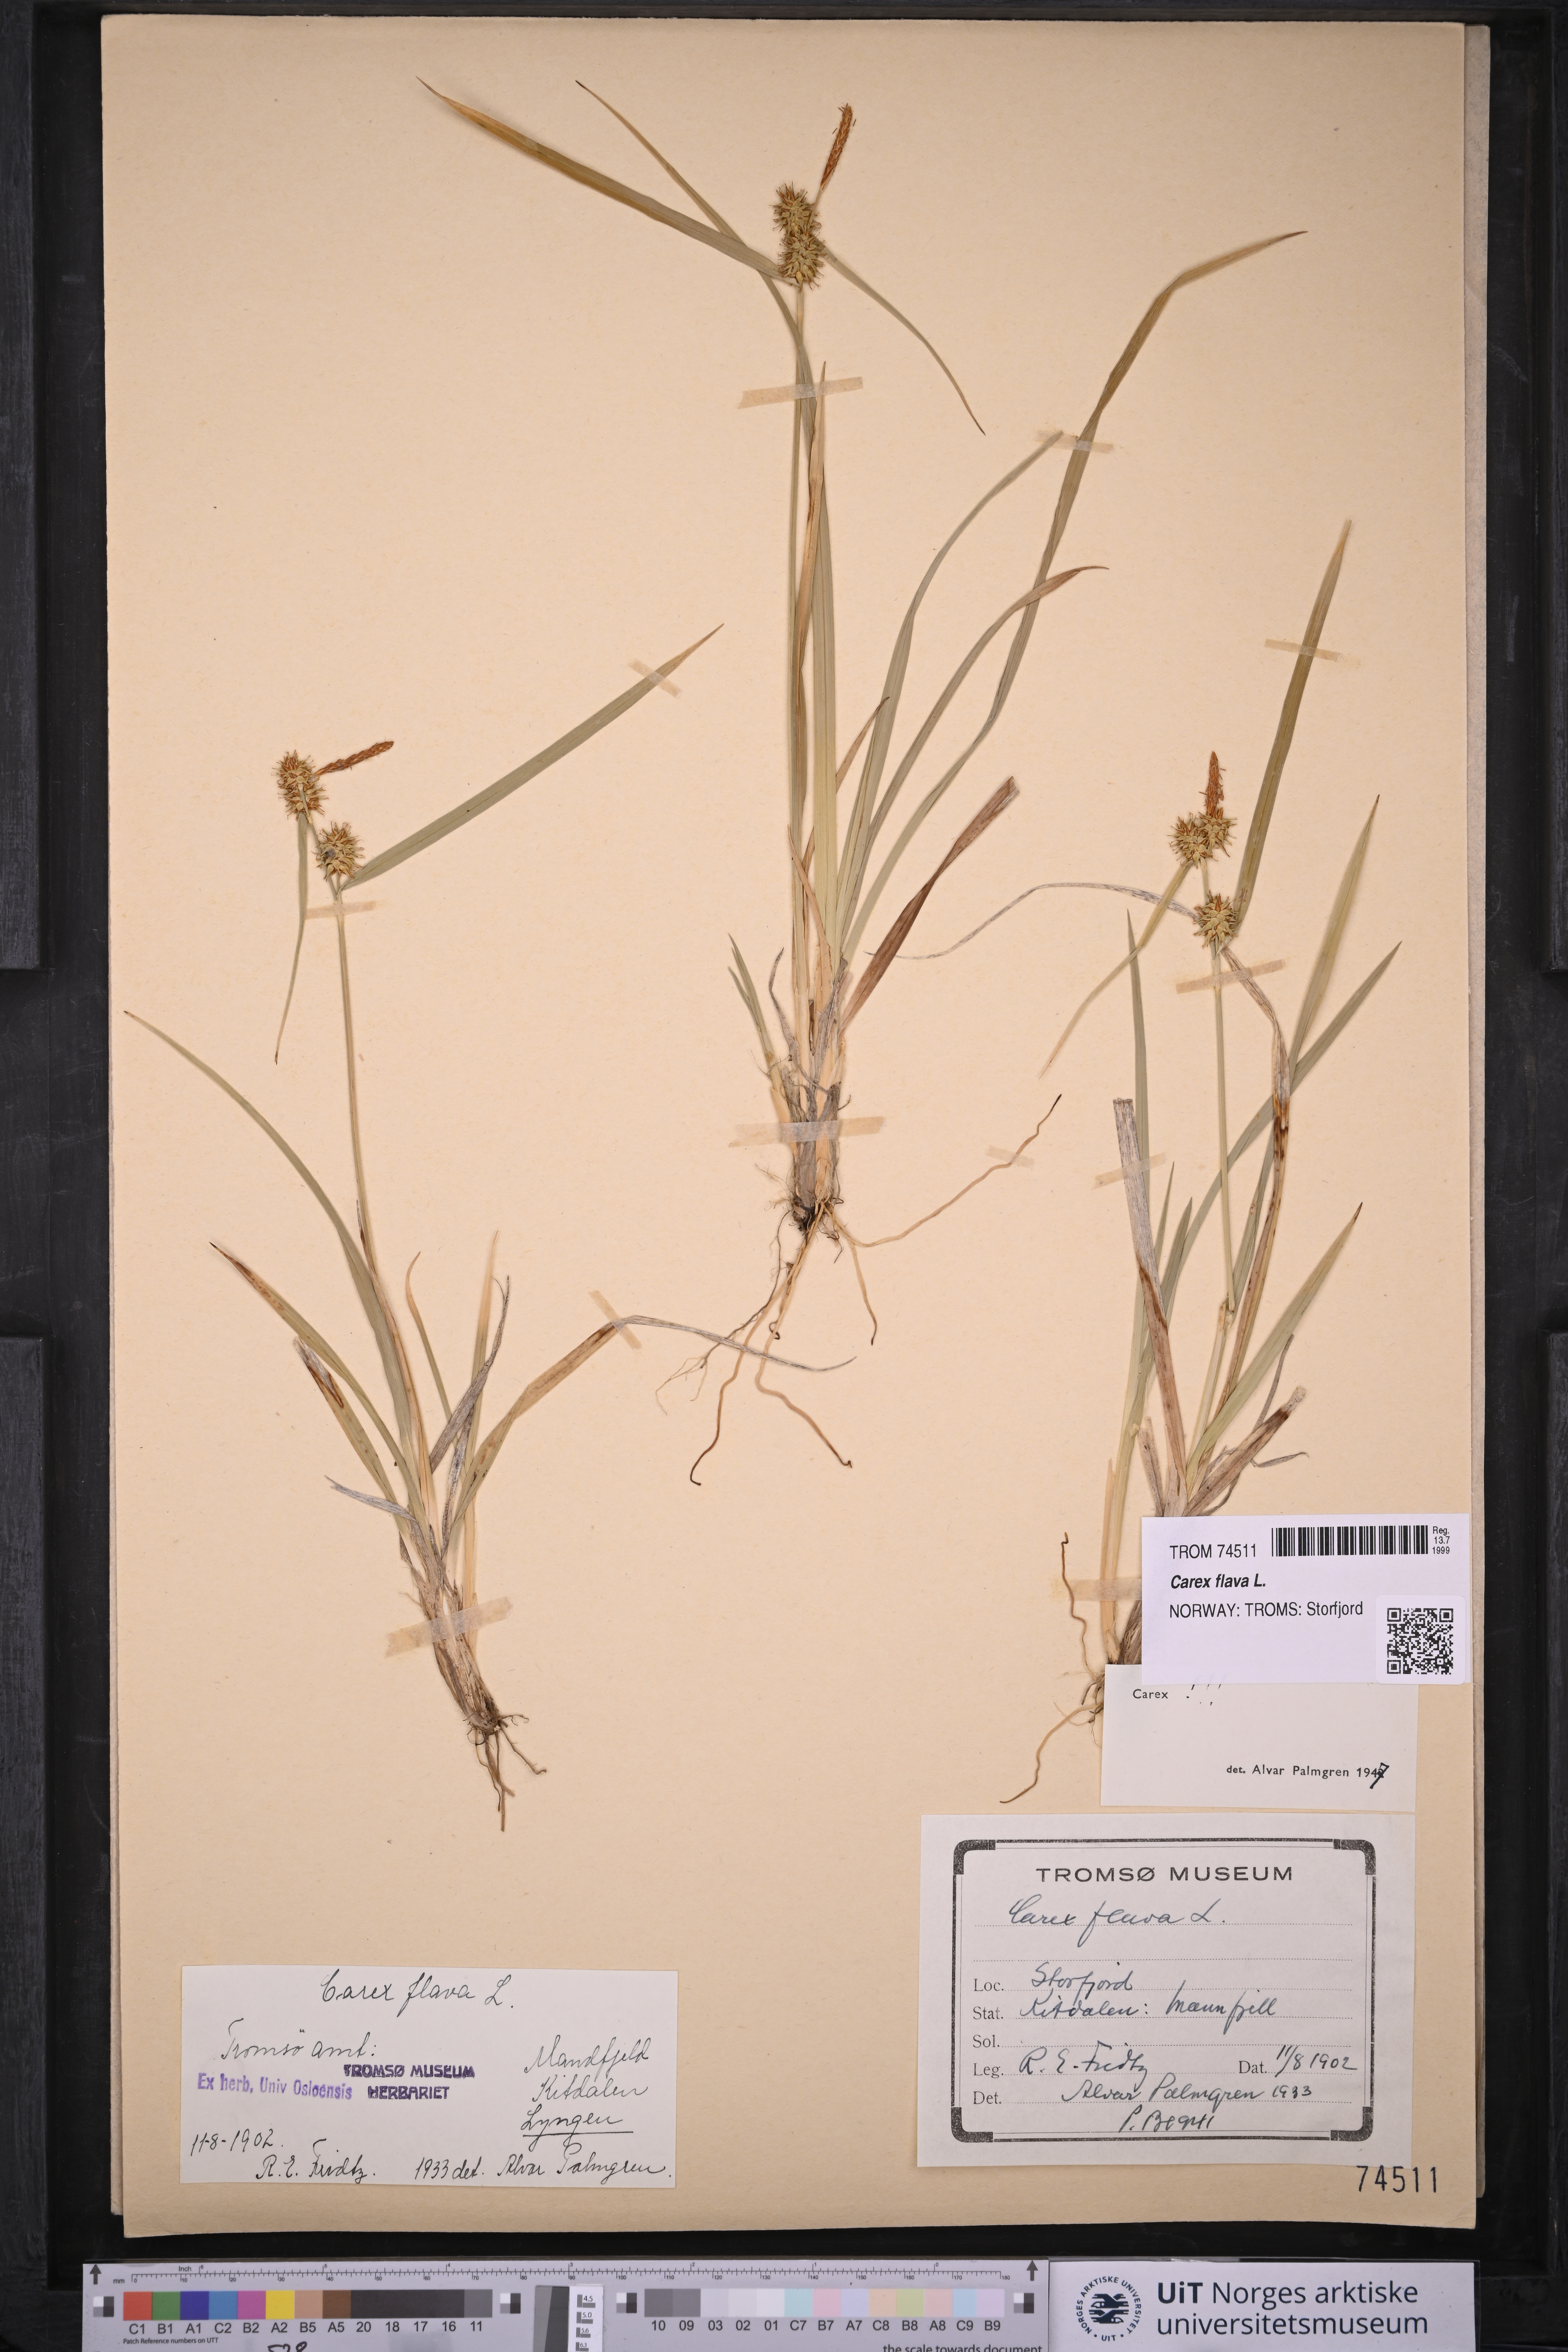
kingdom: Plantae
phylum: Tracheophyta
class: Liliopsida
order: Poales
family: Cyperaceae
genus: Carex
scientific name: Carex flava
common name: Large yellow-sedge
